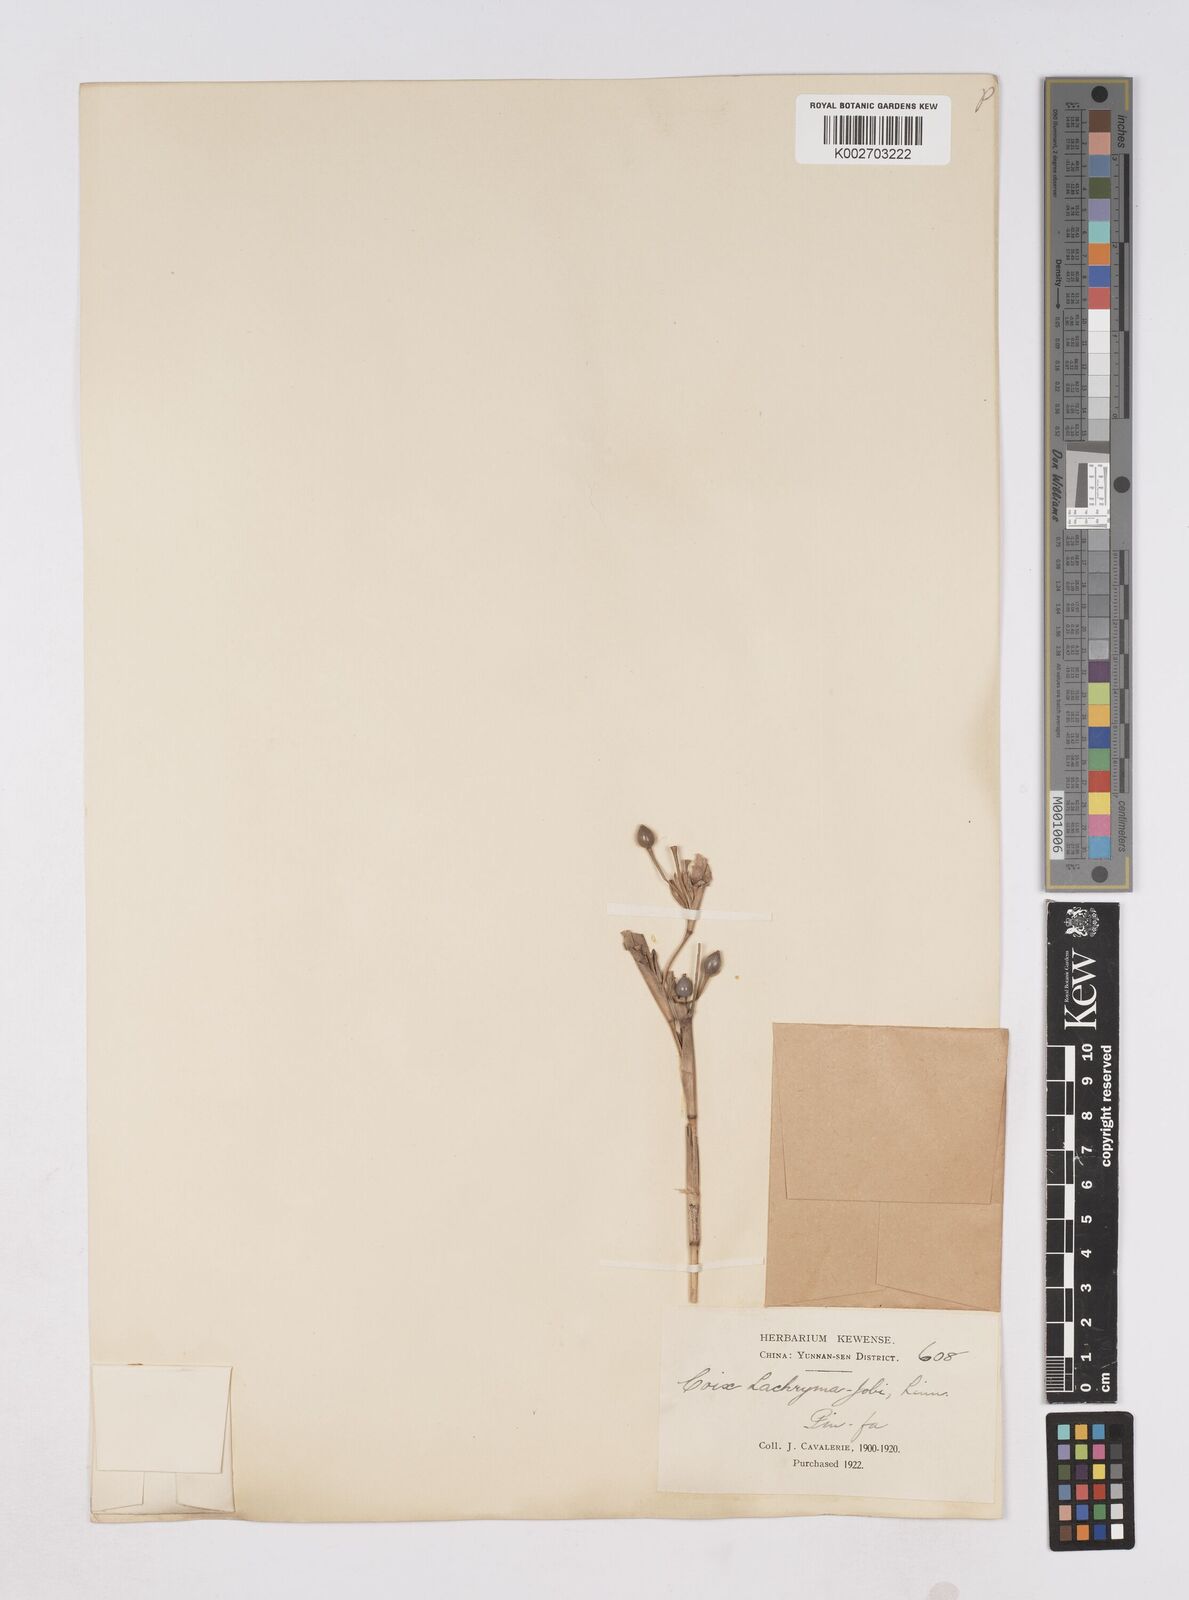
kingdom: Plantae
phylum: Tracheophyta
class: Liliopsida
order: Poales
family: Poaceae
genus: Coix
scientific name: Coix lacryma-jobi
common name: Job's tears
